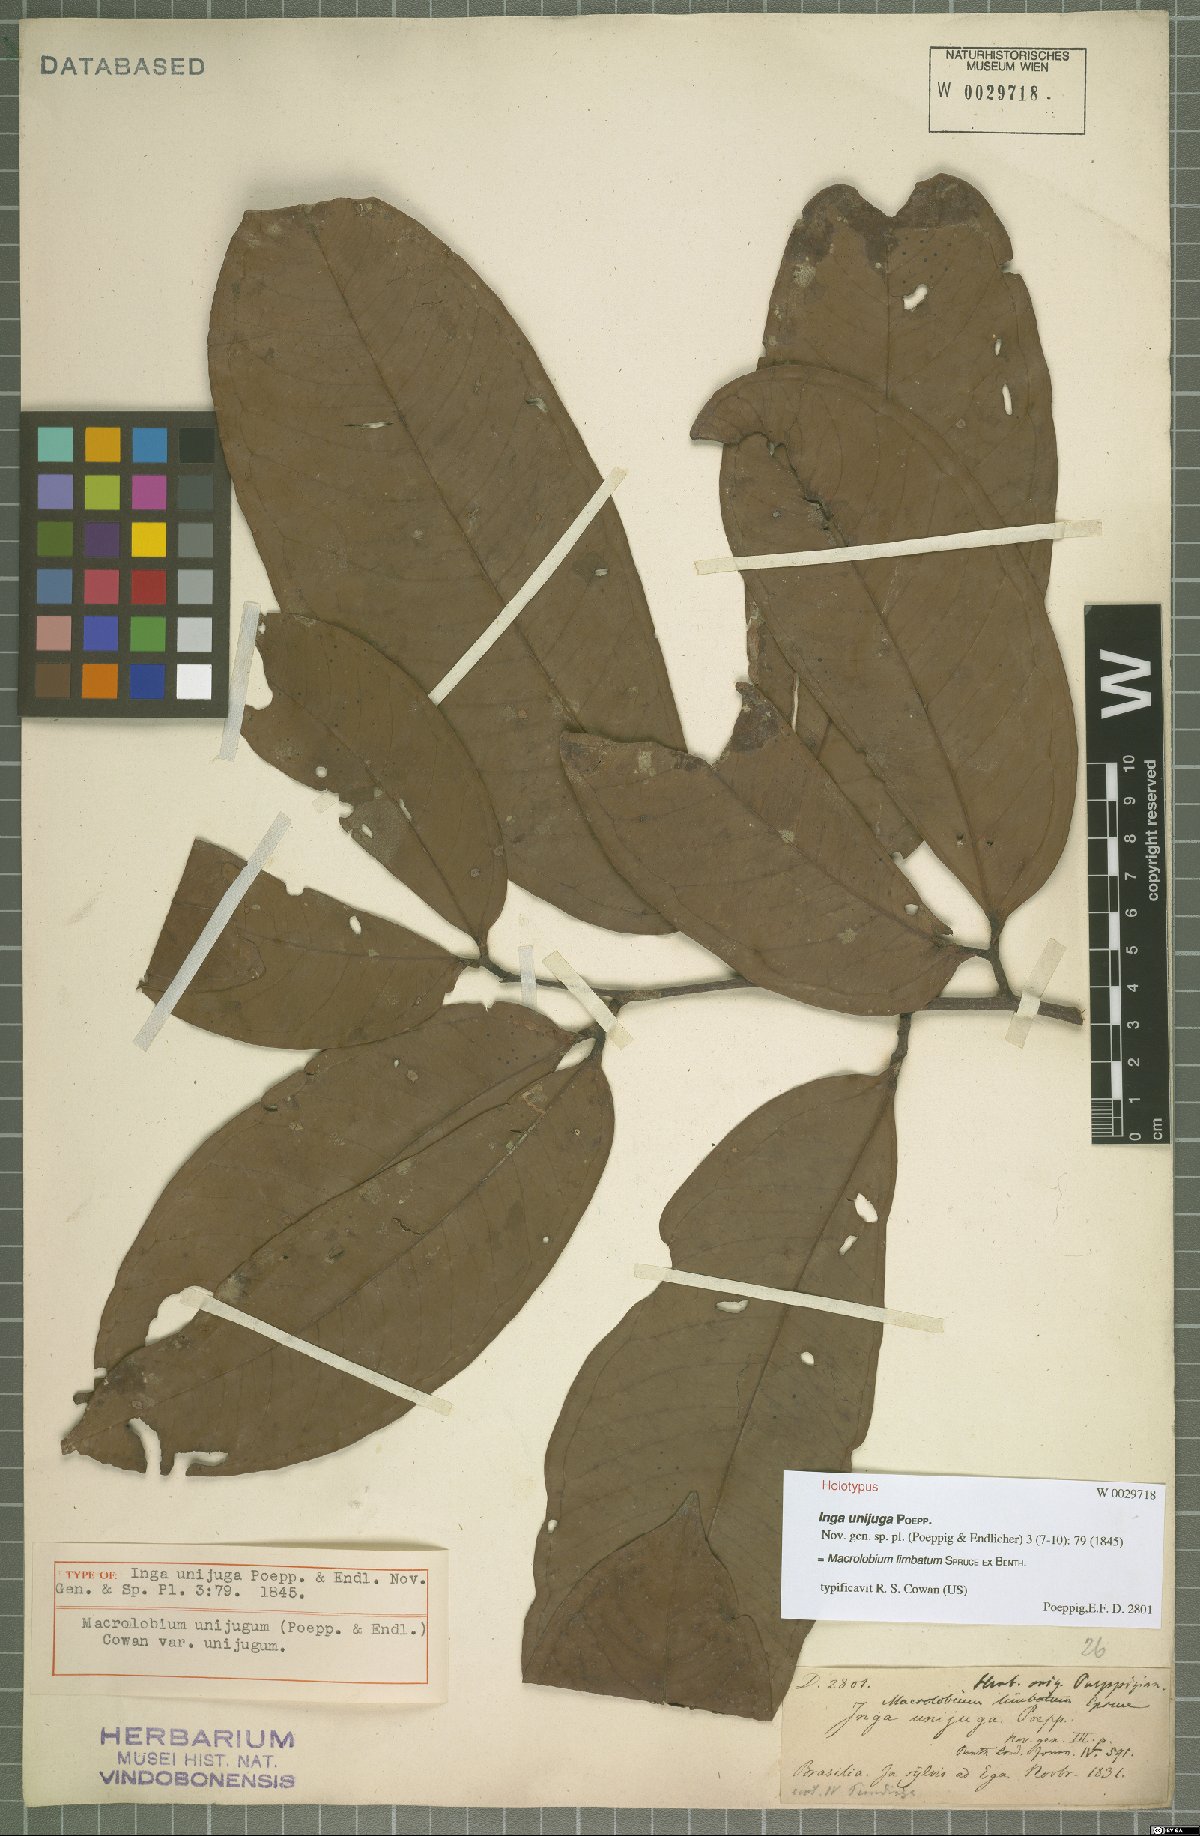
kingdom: Plantae
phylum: Tracheophyta
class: Magnoliopsida
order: Fabales
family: Fabaceae
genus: Macrolobium
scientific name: Macrolobium limbatum
